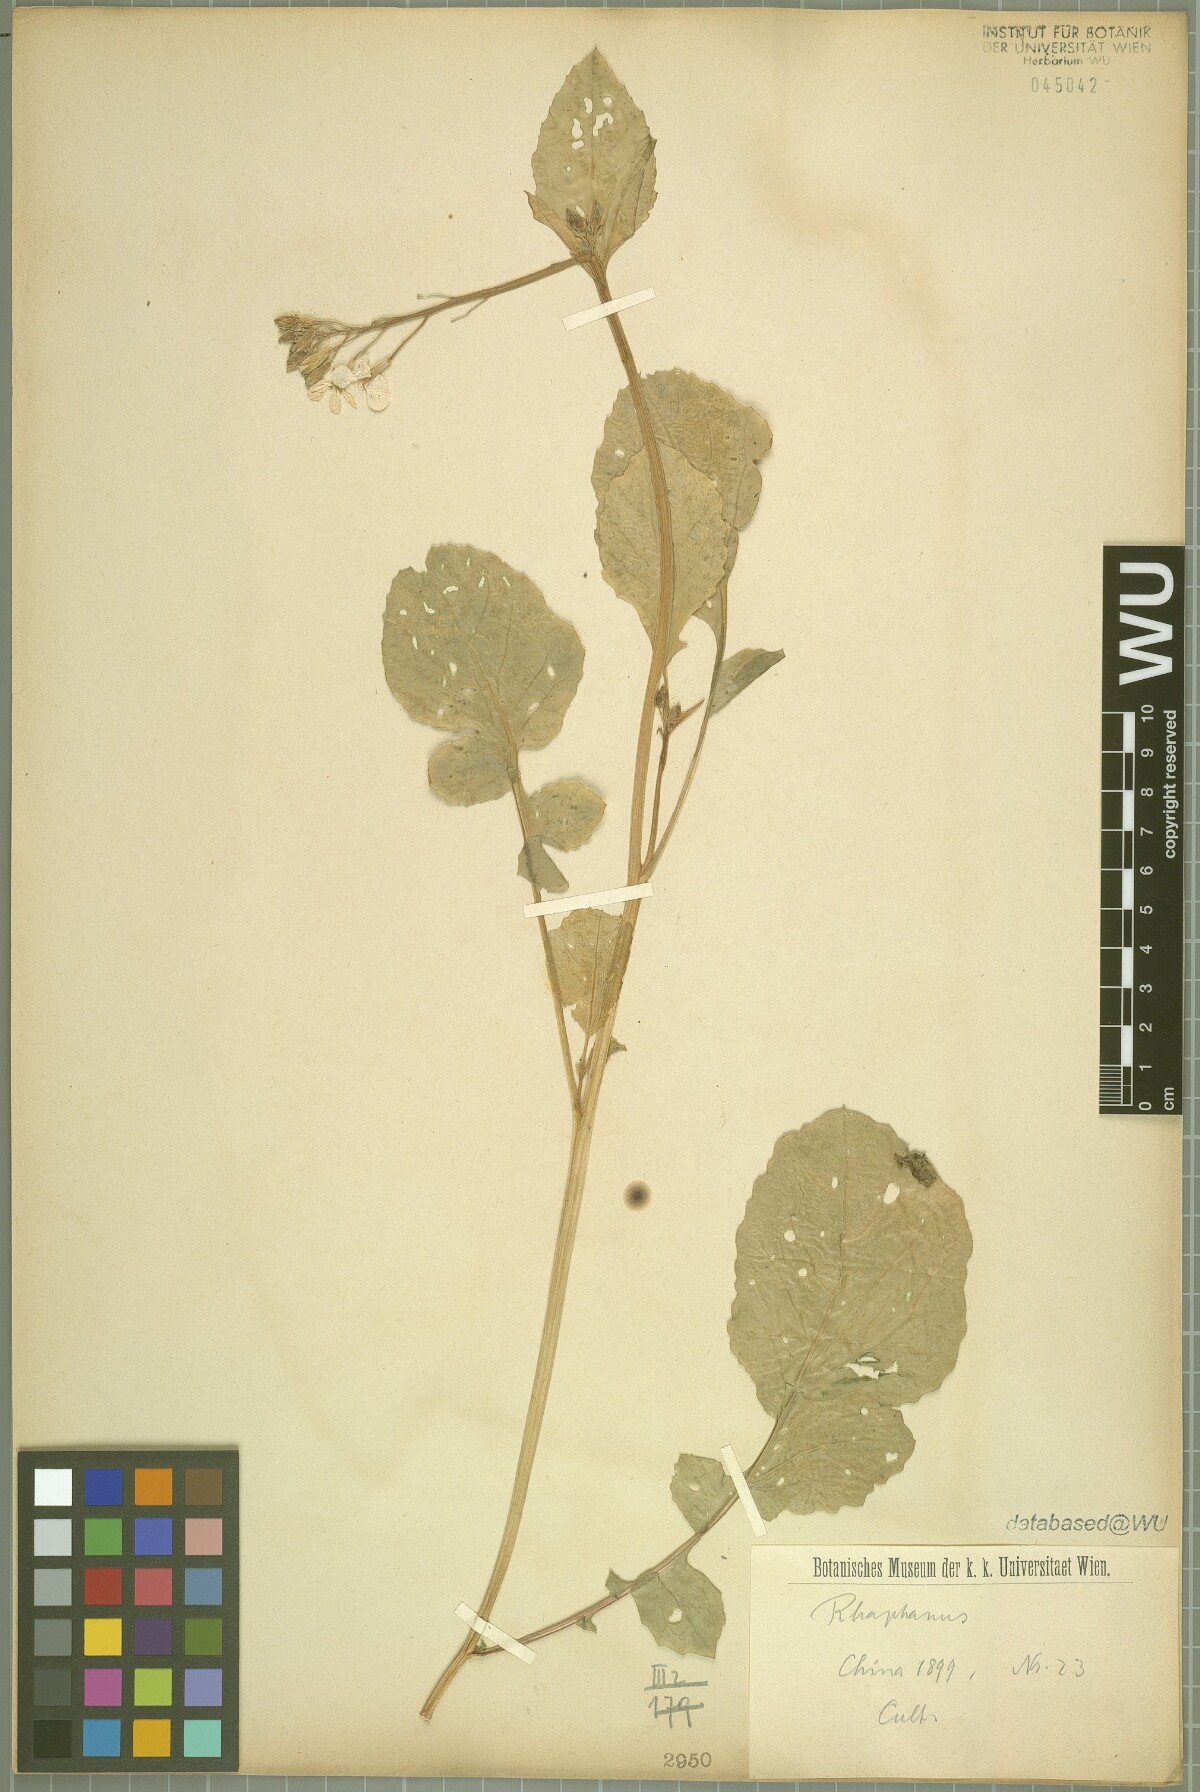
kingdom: Plantae
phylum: Tracheophyta
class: Magnoliopsida
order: Brassicales
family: Brassicaceae
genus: Raphanus
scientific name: Raphanus
